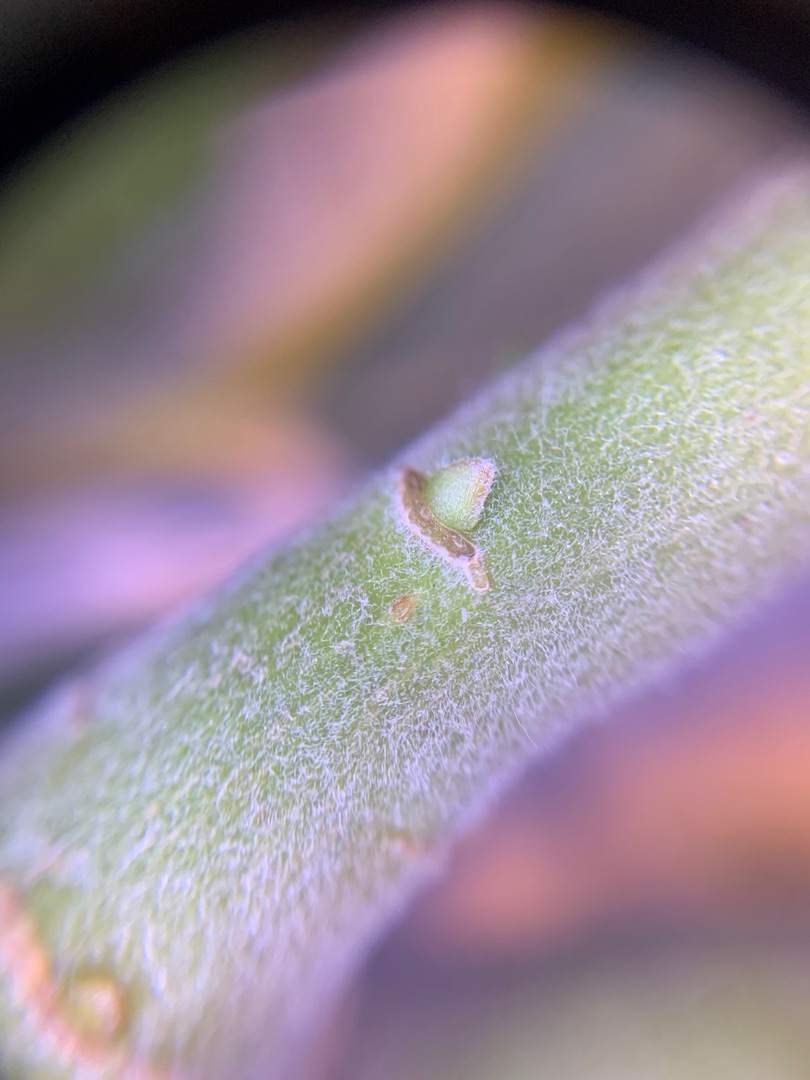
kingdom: Plantae
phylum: Tracheophyta
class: Magnoliopsida
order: Malpighiales
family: Salicaceae
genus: Salix
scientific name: Salix cinerea
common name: Grå-pil
